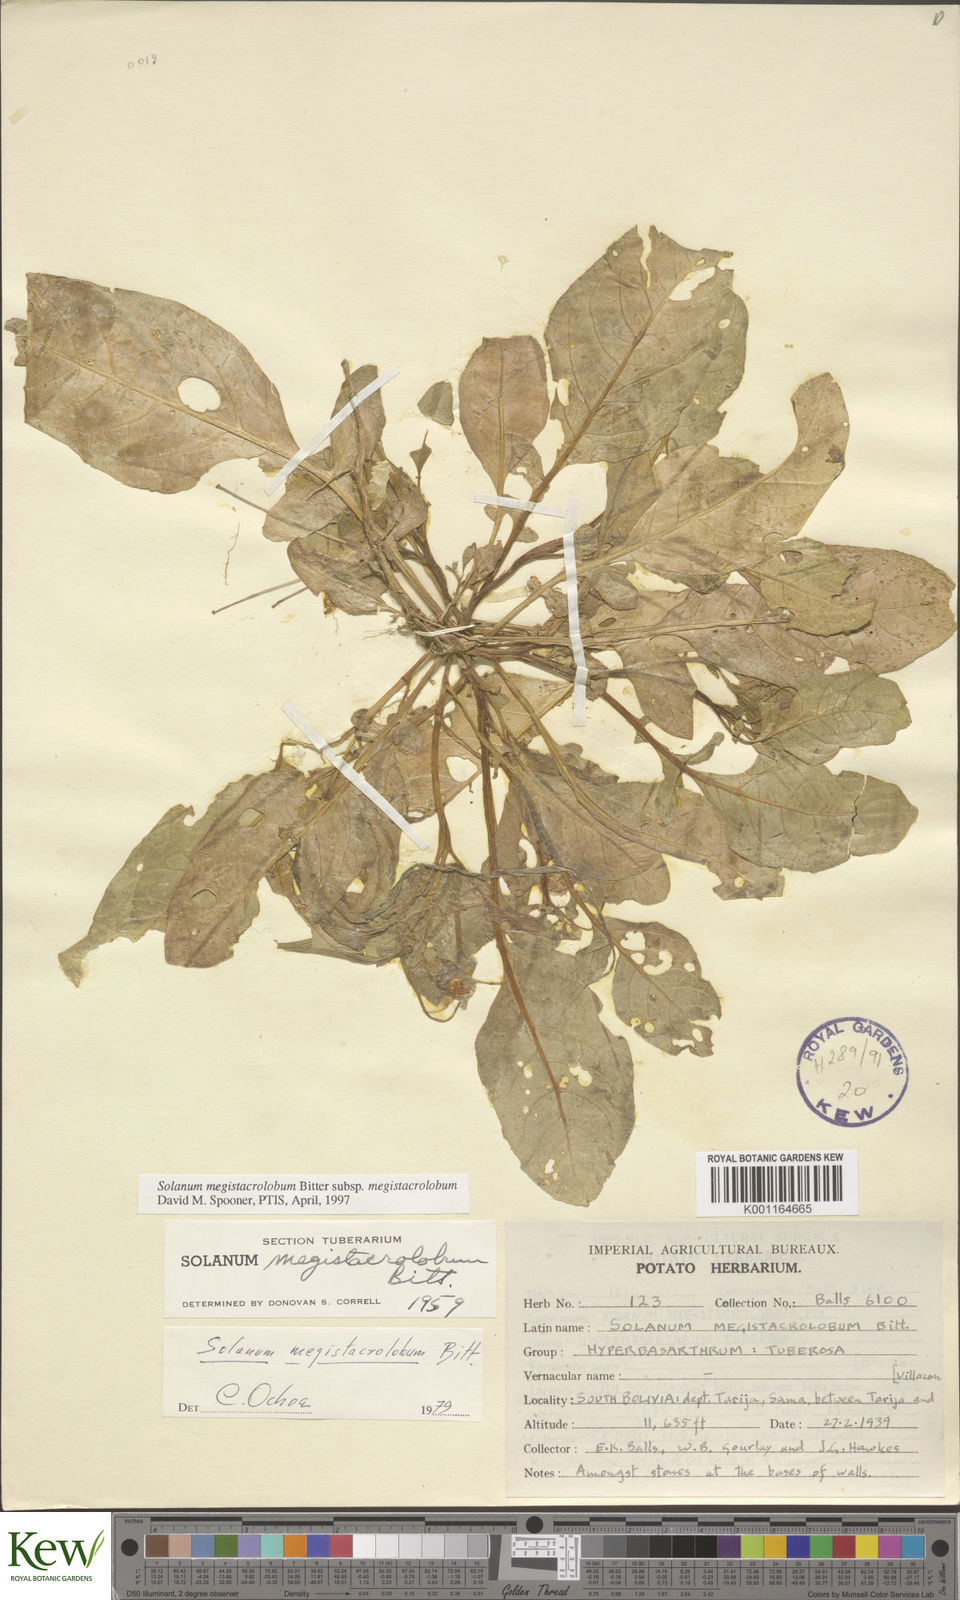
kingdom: Plantae
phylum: Tracheophyta
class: Magnoliopsida
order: Solanales
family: Solanaceae
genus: Solanum
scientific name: Solanum boliviense
